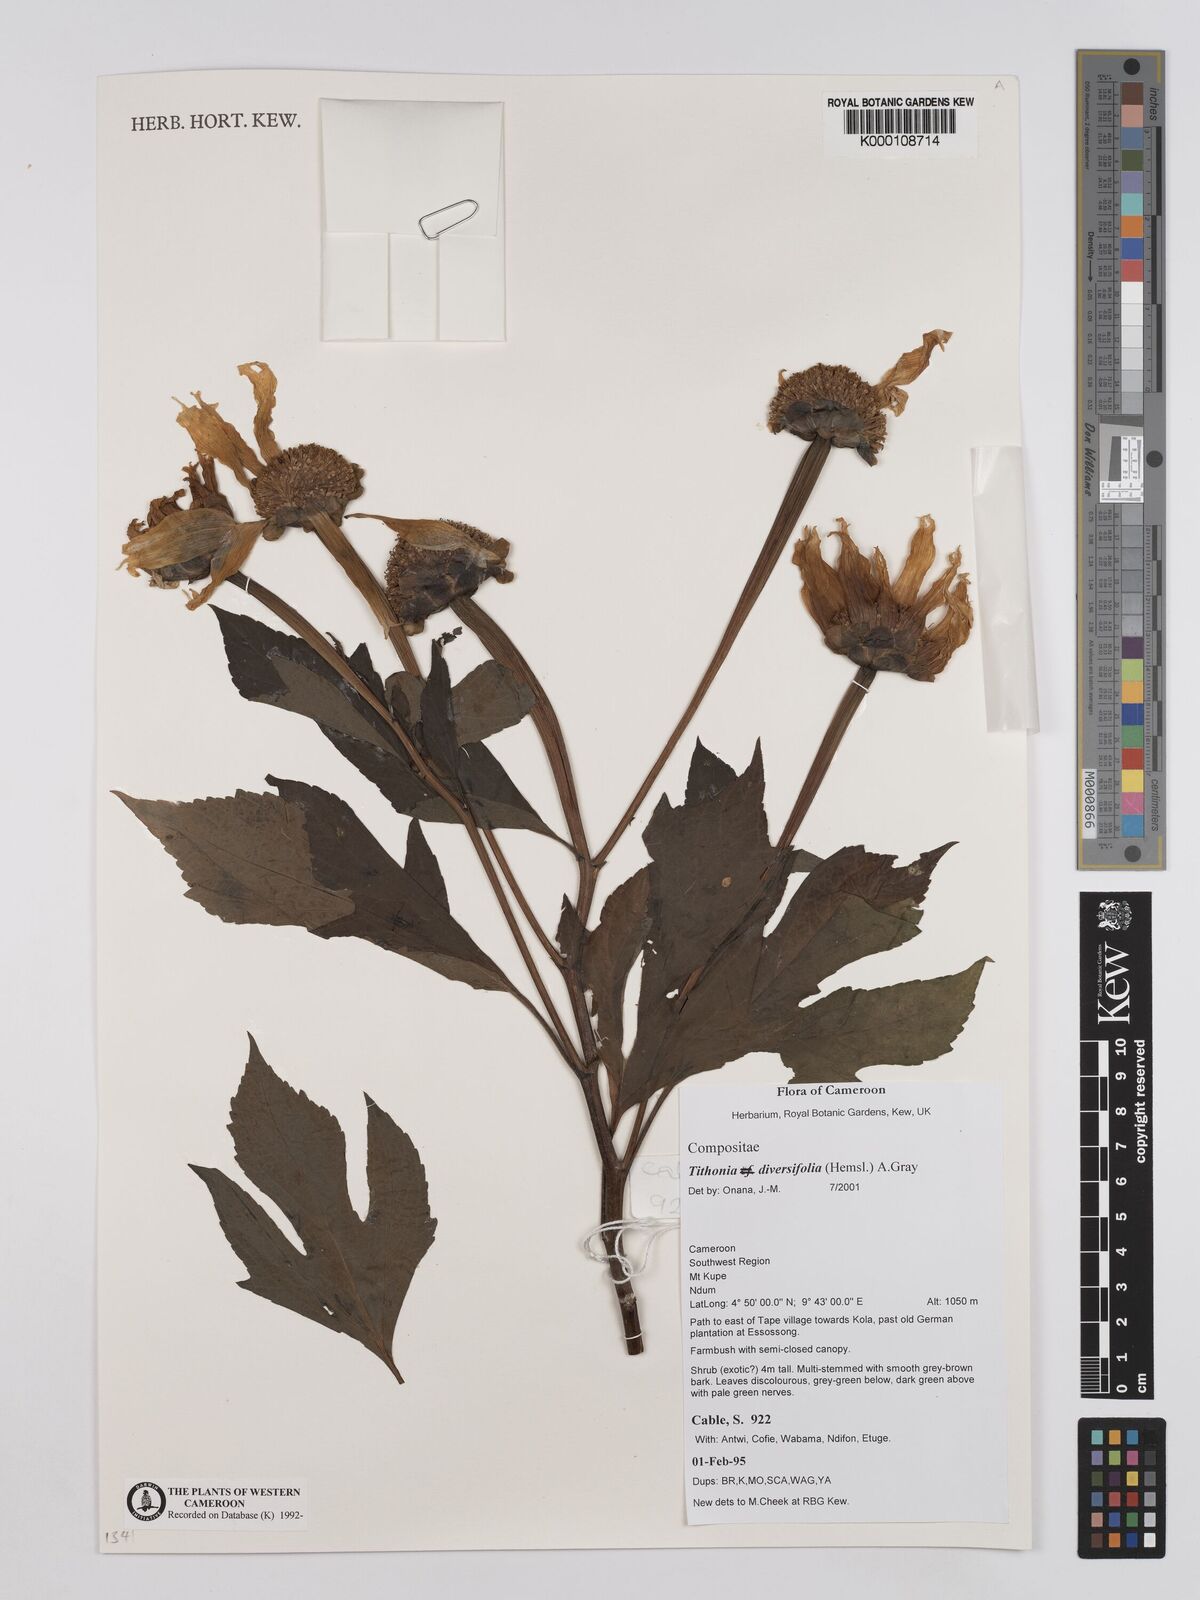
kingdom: Plantae
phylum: Tracheophyta
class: Magnoliopsida
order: Asterales
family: Asteraceae
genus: Tithonia
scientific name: Tithonia diversifolia
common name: Tree marigold
